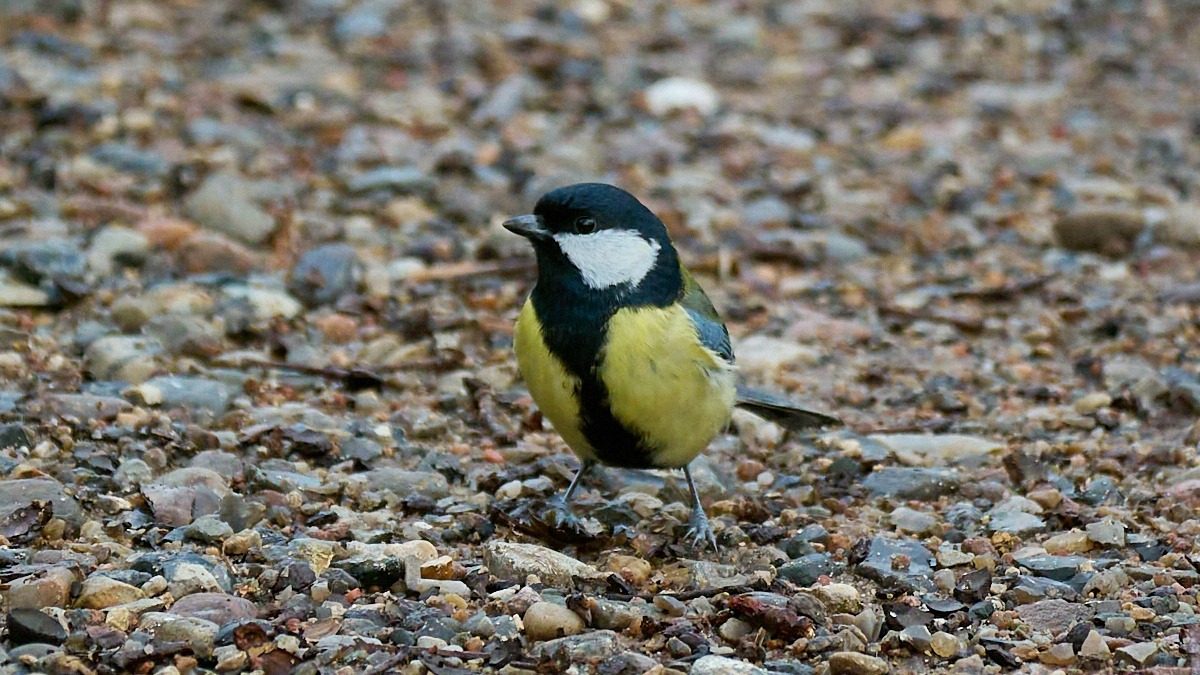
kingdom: Animalia
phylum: Chordata
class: Aves
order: Passeriformes
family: Paridae
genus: Parus
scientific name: Parus major
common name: Musvit
